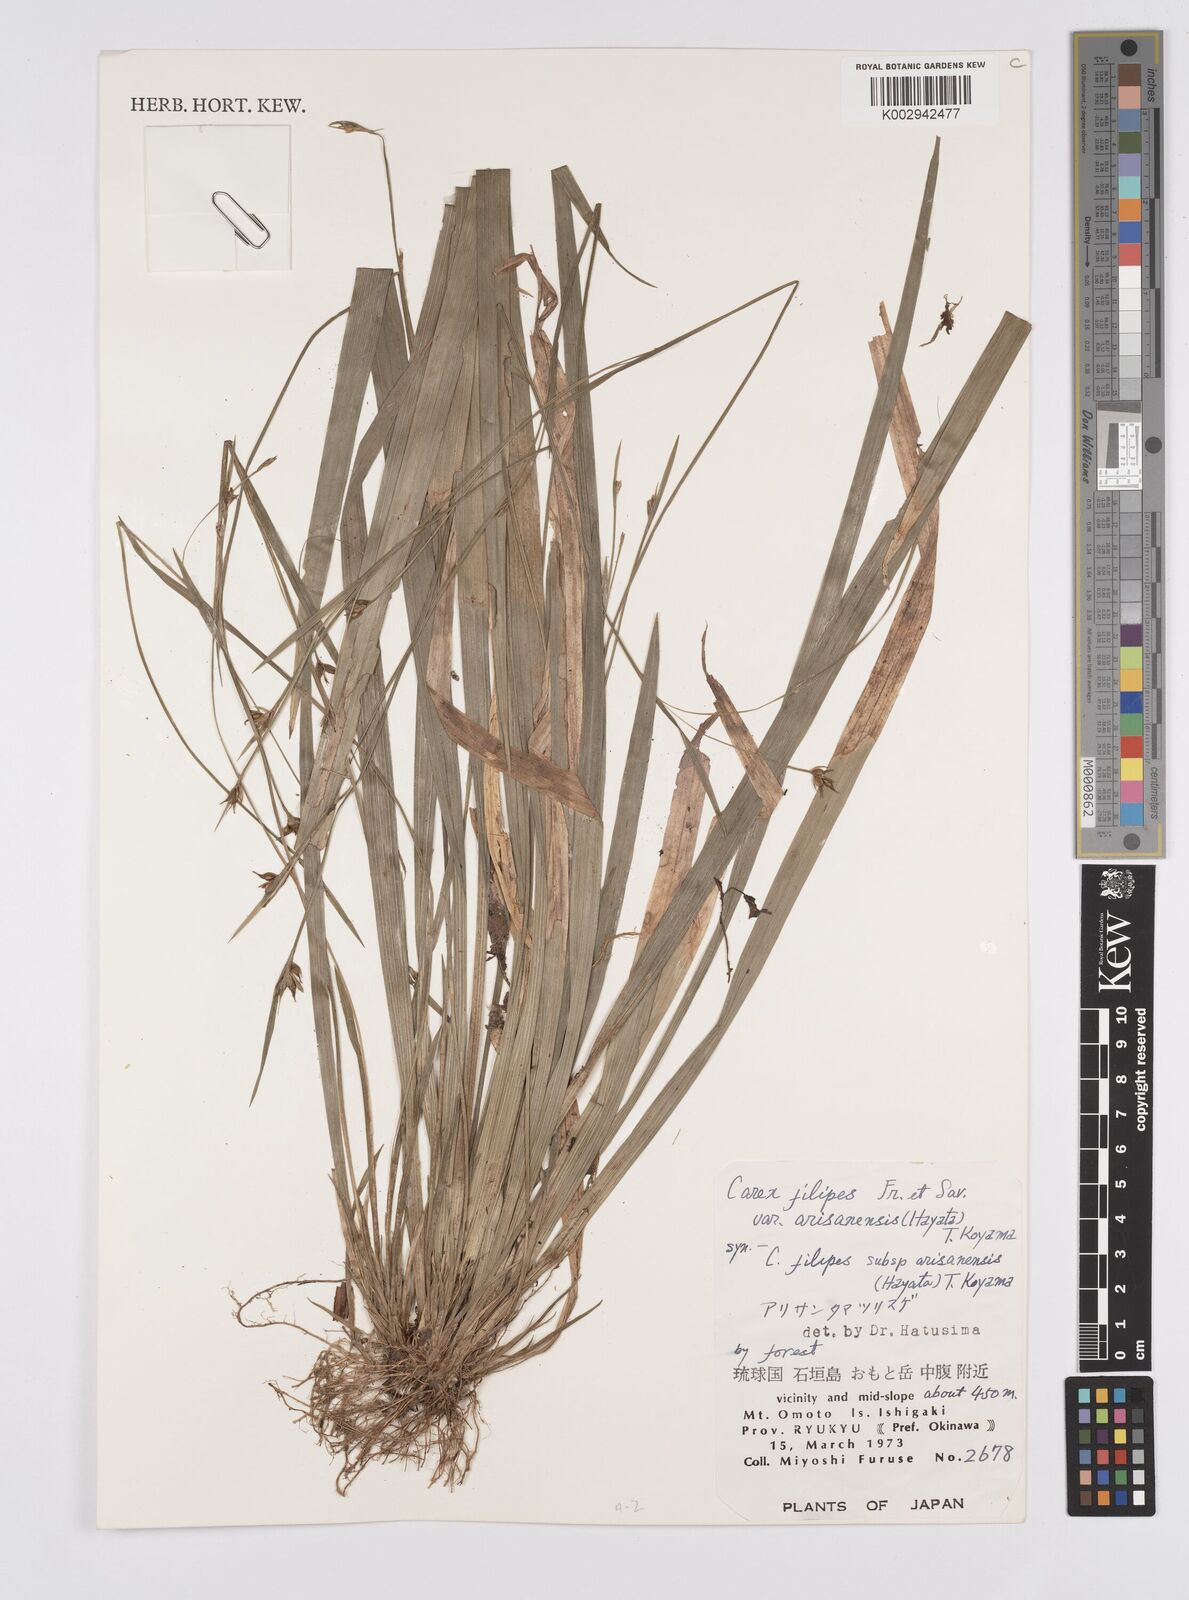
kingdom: Plantae
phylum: Tracheophyta
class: Liliopsida
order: Poales
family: Cyperaceae
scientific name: Cyperaceae
